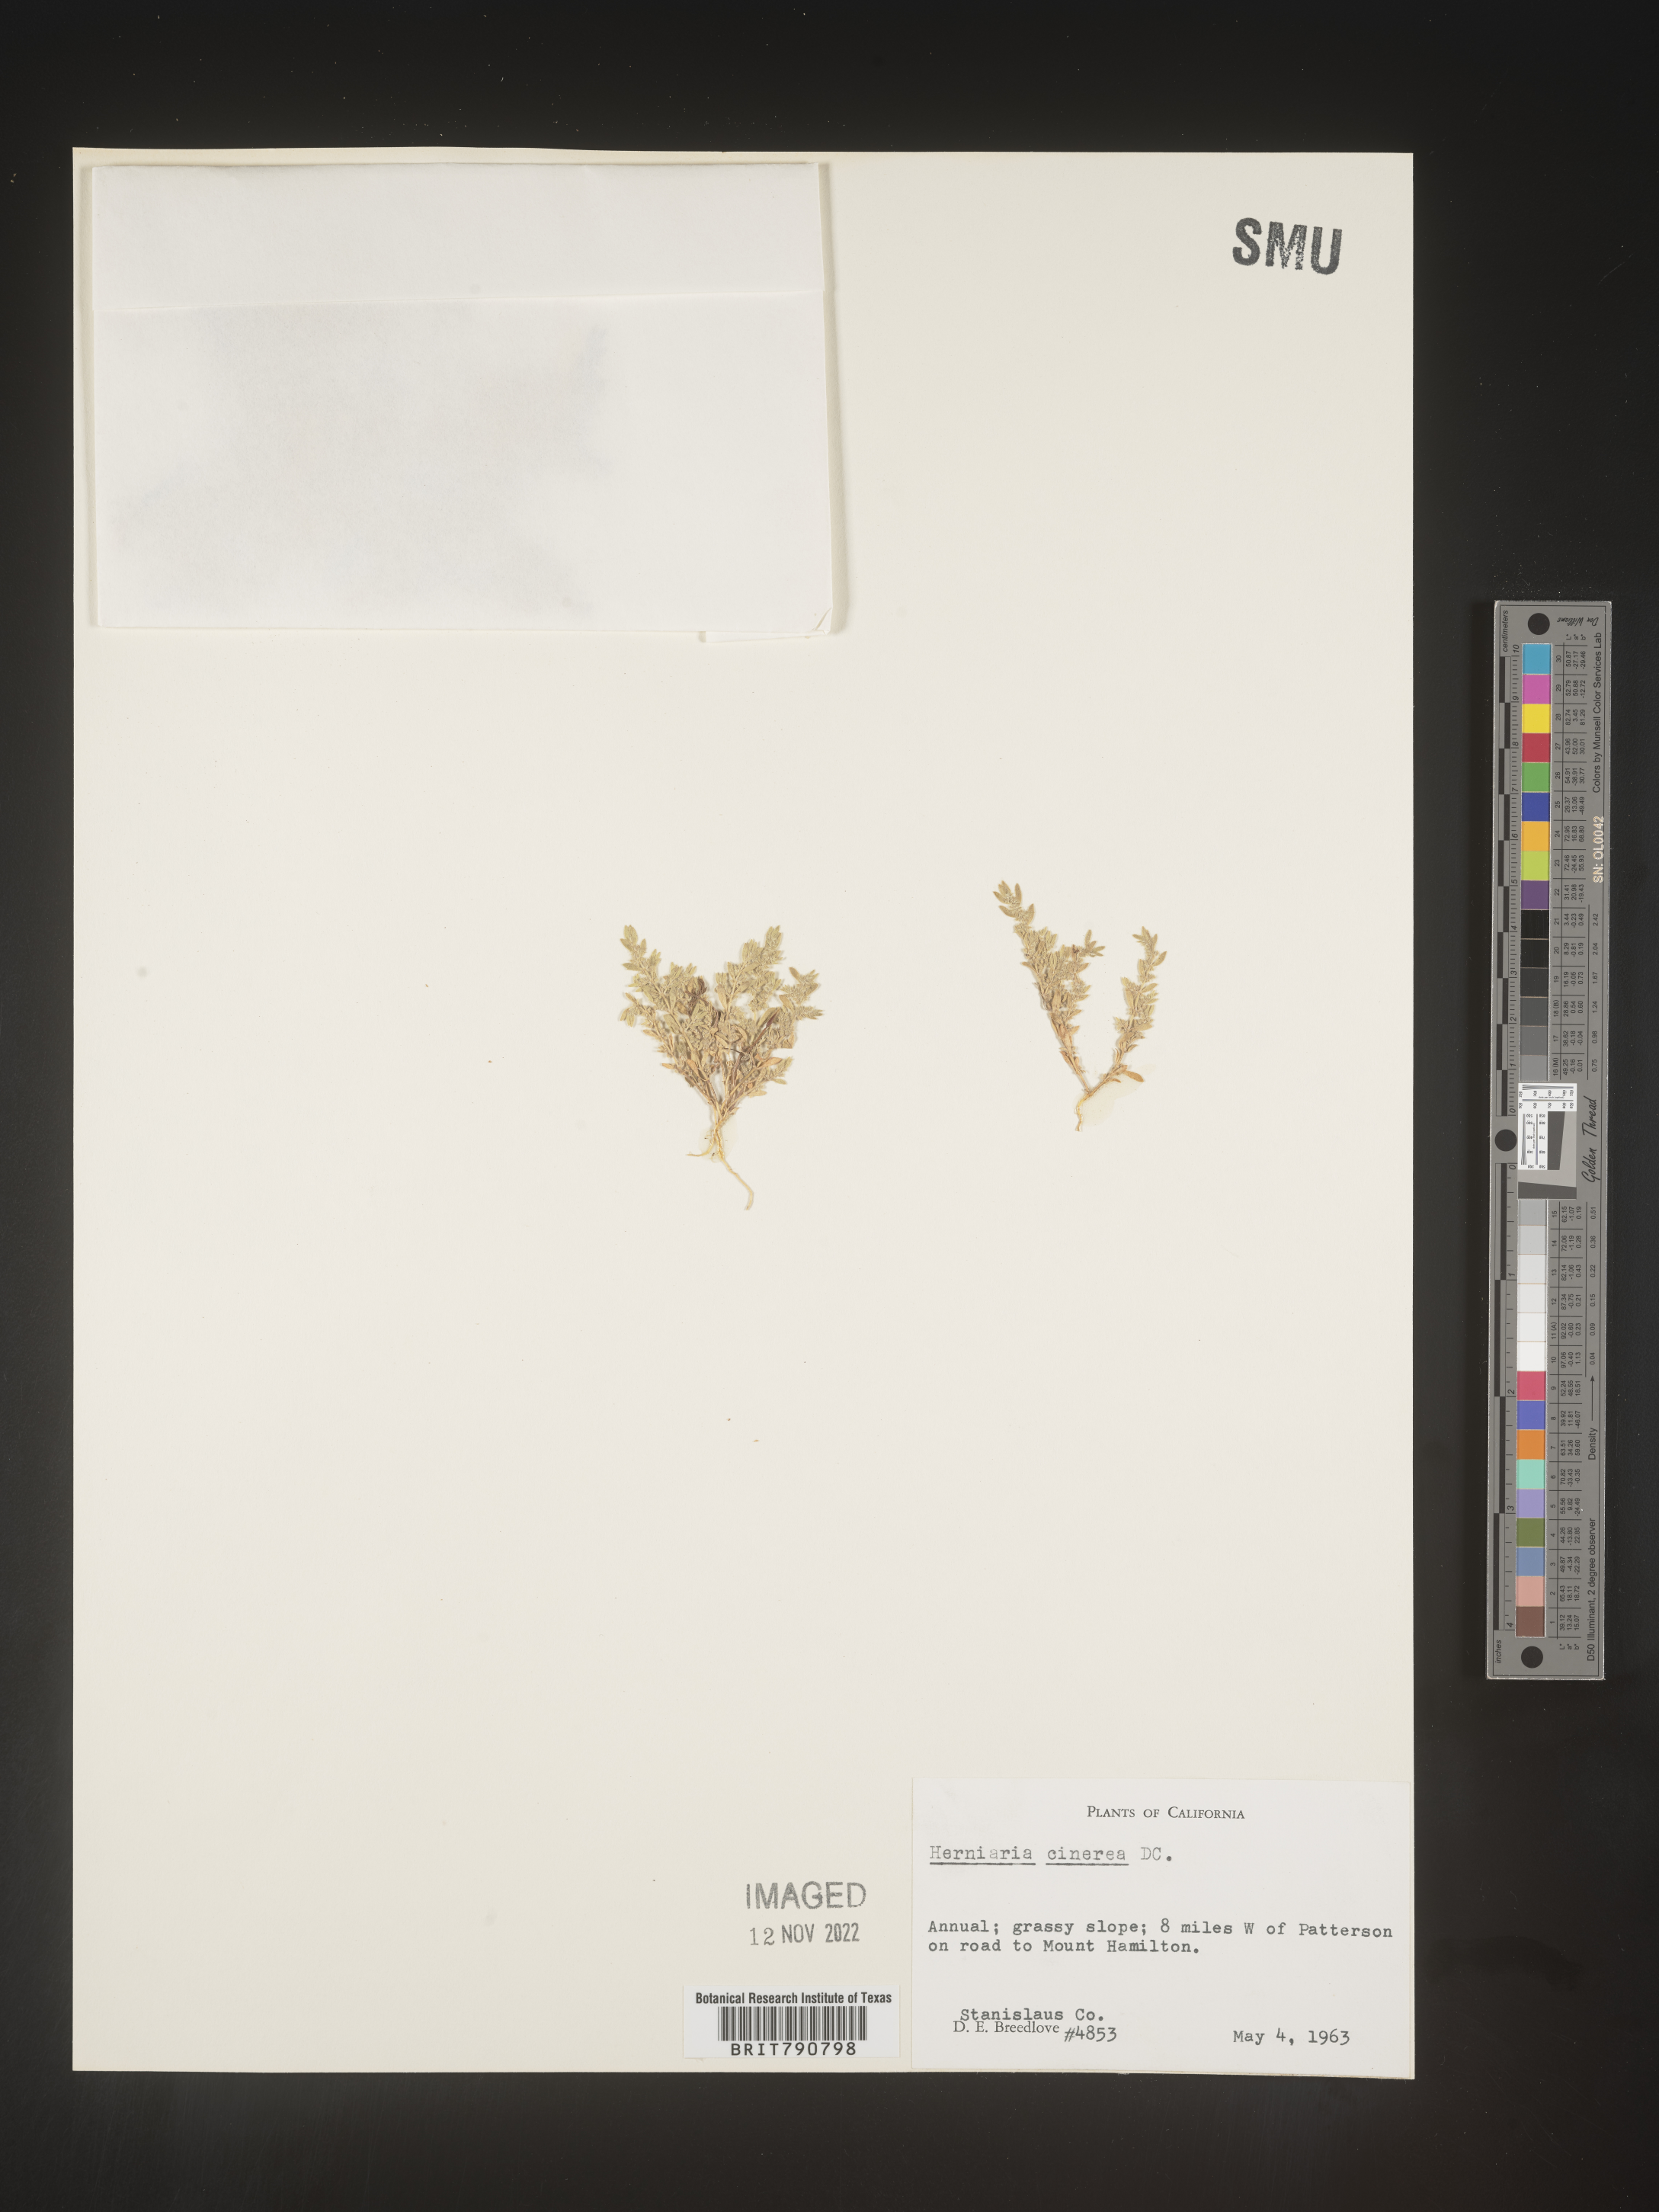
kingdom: Plantae
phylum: Tracheophyta
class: Magnoliopsida
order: Caryophyllales
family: Caryophyllaceae
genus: Herniaria
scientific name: Herniaria
